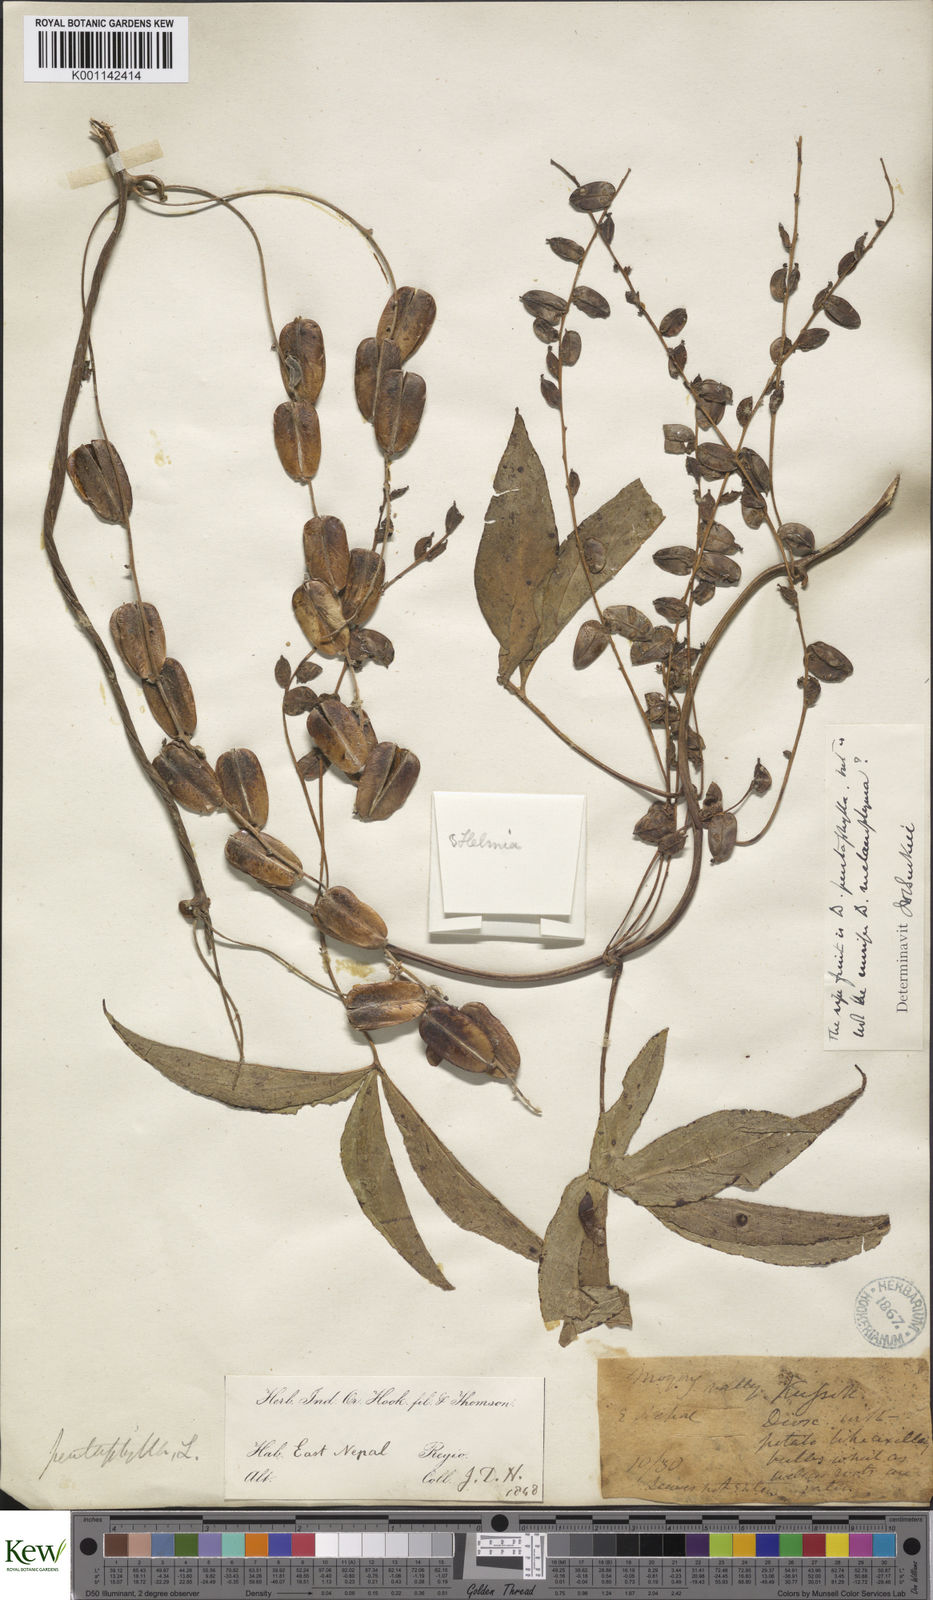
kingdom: Plantae
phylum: Tracheophyta
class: Liliopsida
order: Dioscoreales
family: Dioscoreaceae
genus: Dioscorea
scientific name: Dioscorea pentaphylla
